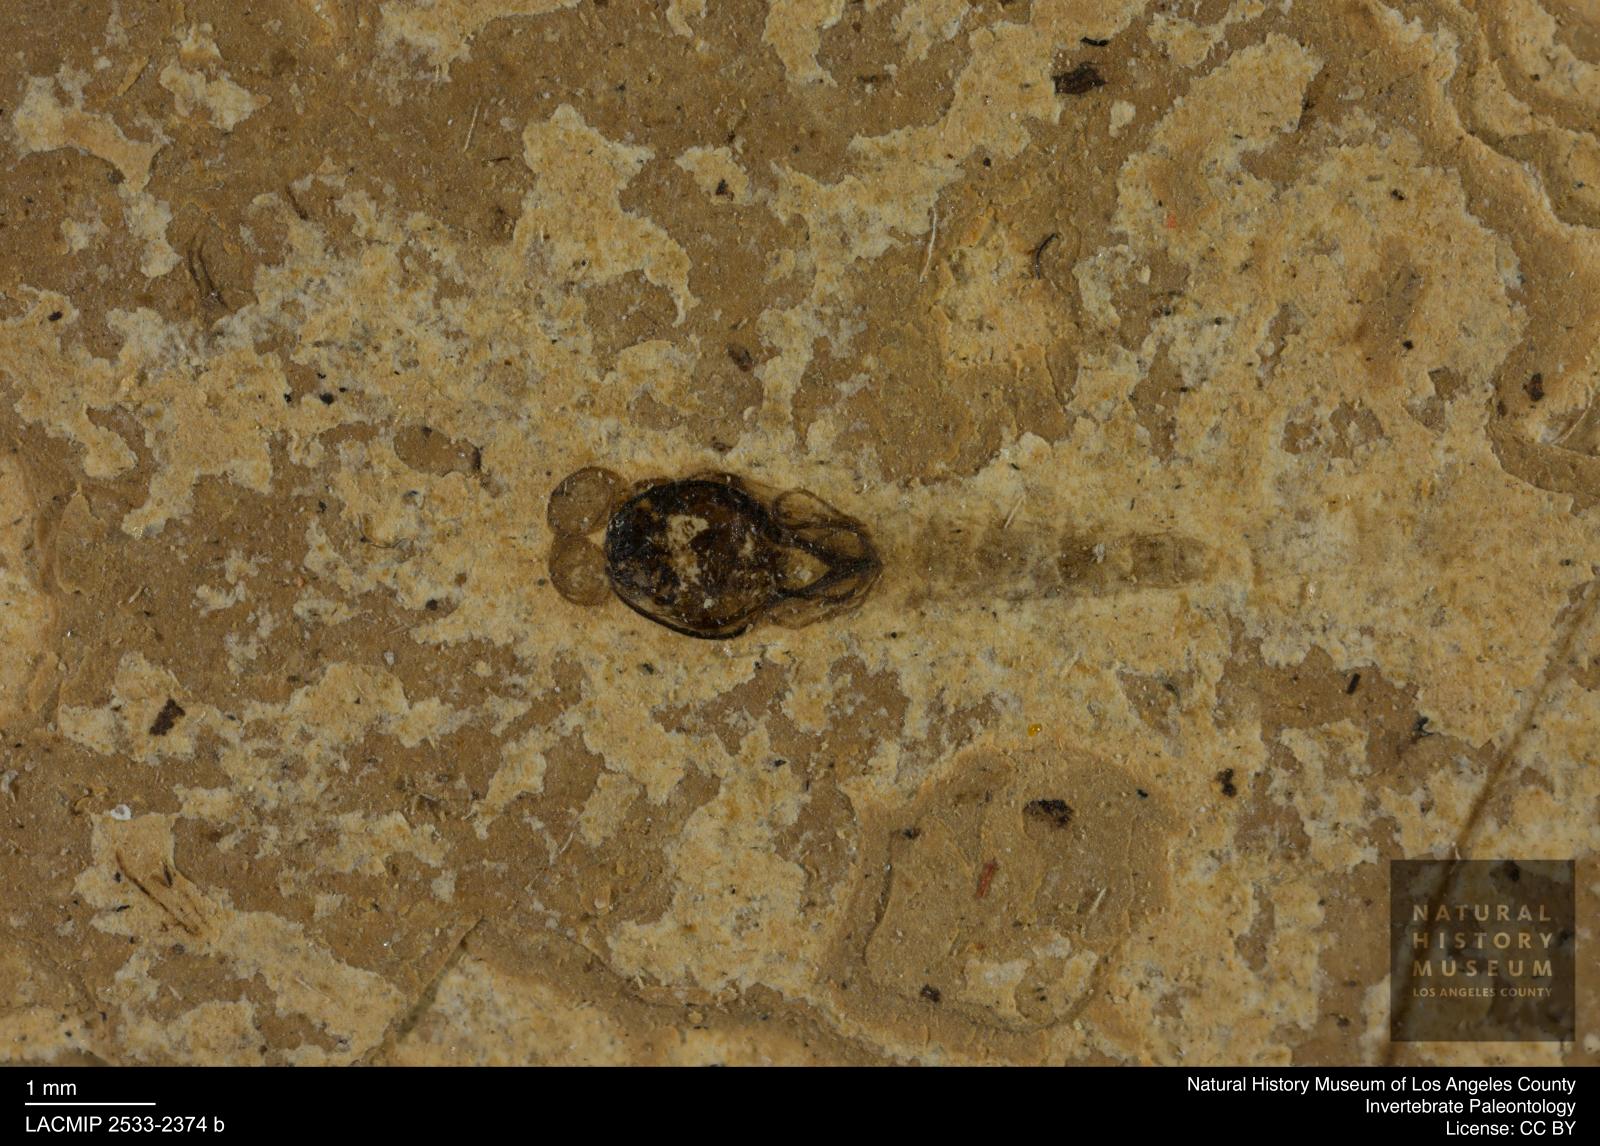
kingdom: Animalia
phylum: Arthropoda
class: Insecta
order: Diptera
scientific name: Diptera
